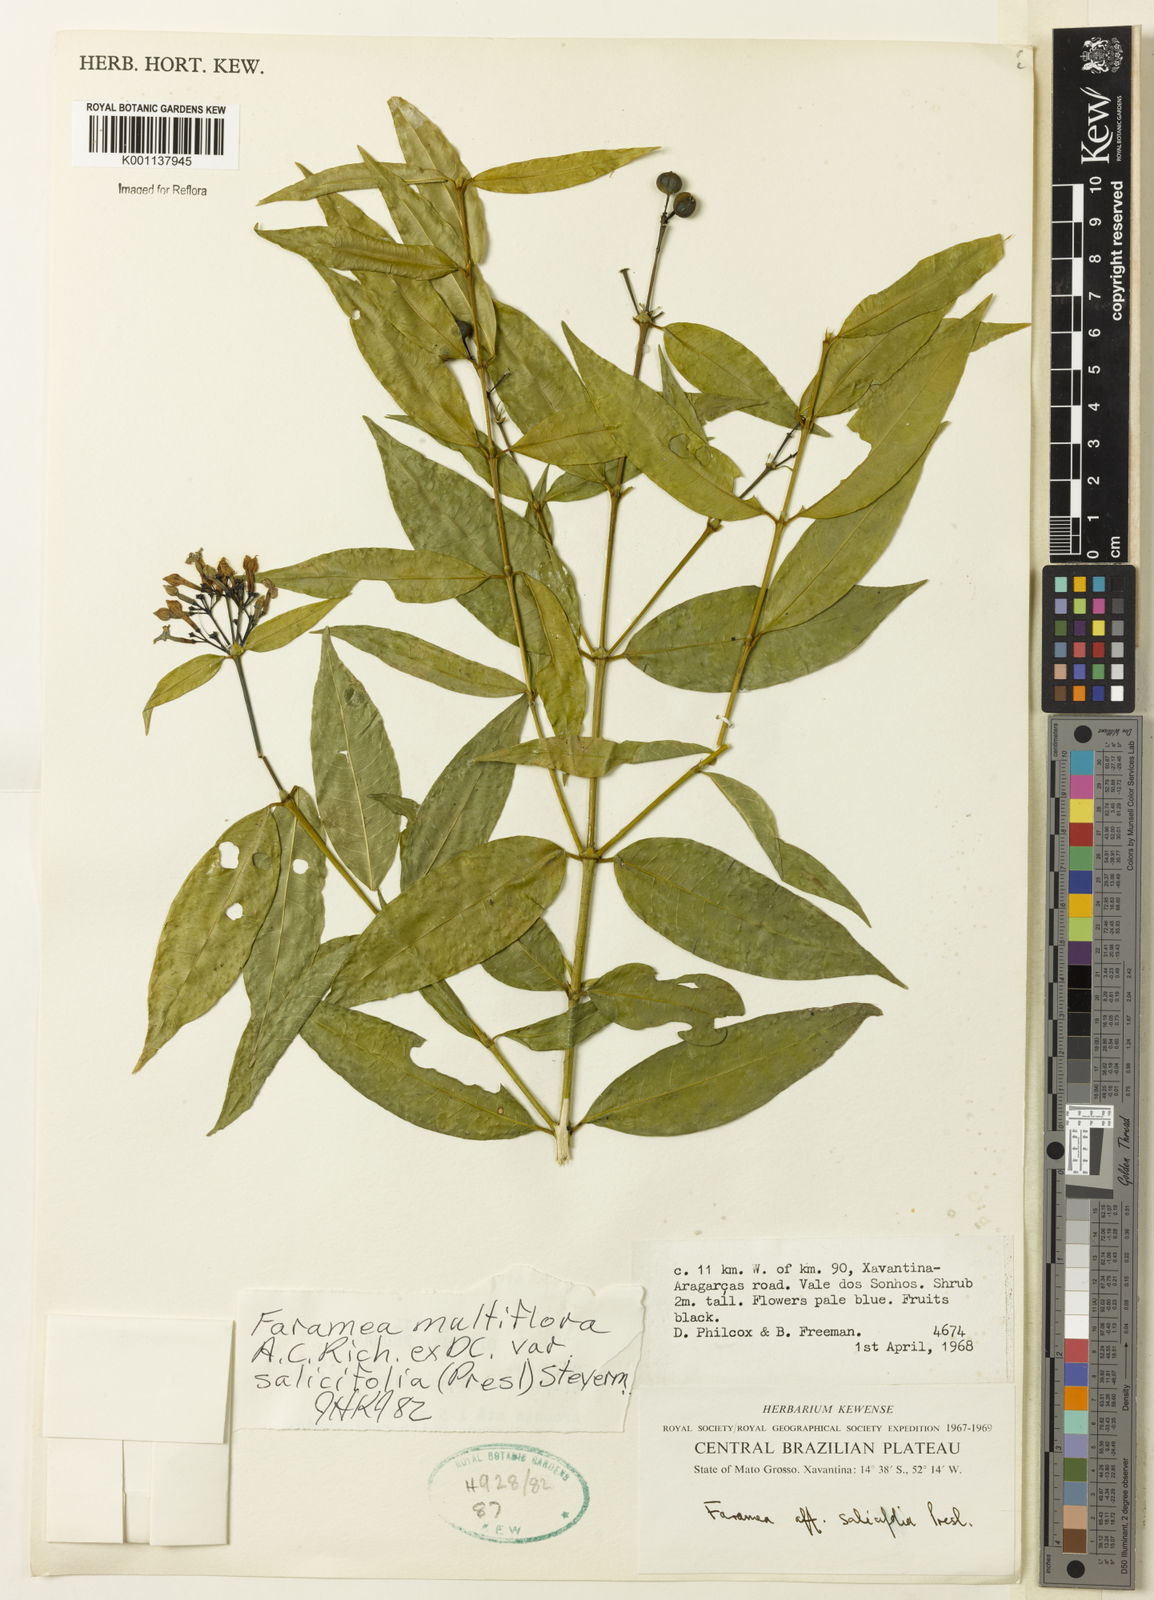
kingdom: Plantae
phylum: Tracheophyta
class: Magnoliopsida
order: Gentianales
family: Rubiaceae
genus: Faramea
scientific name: Faramea multiflora
